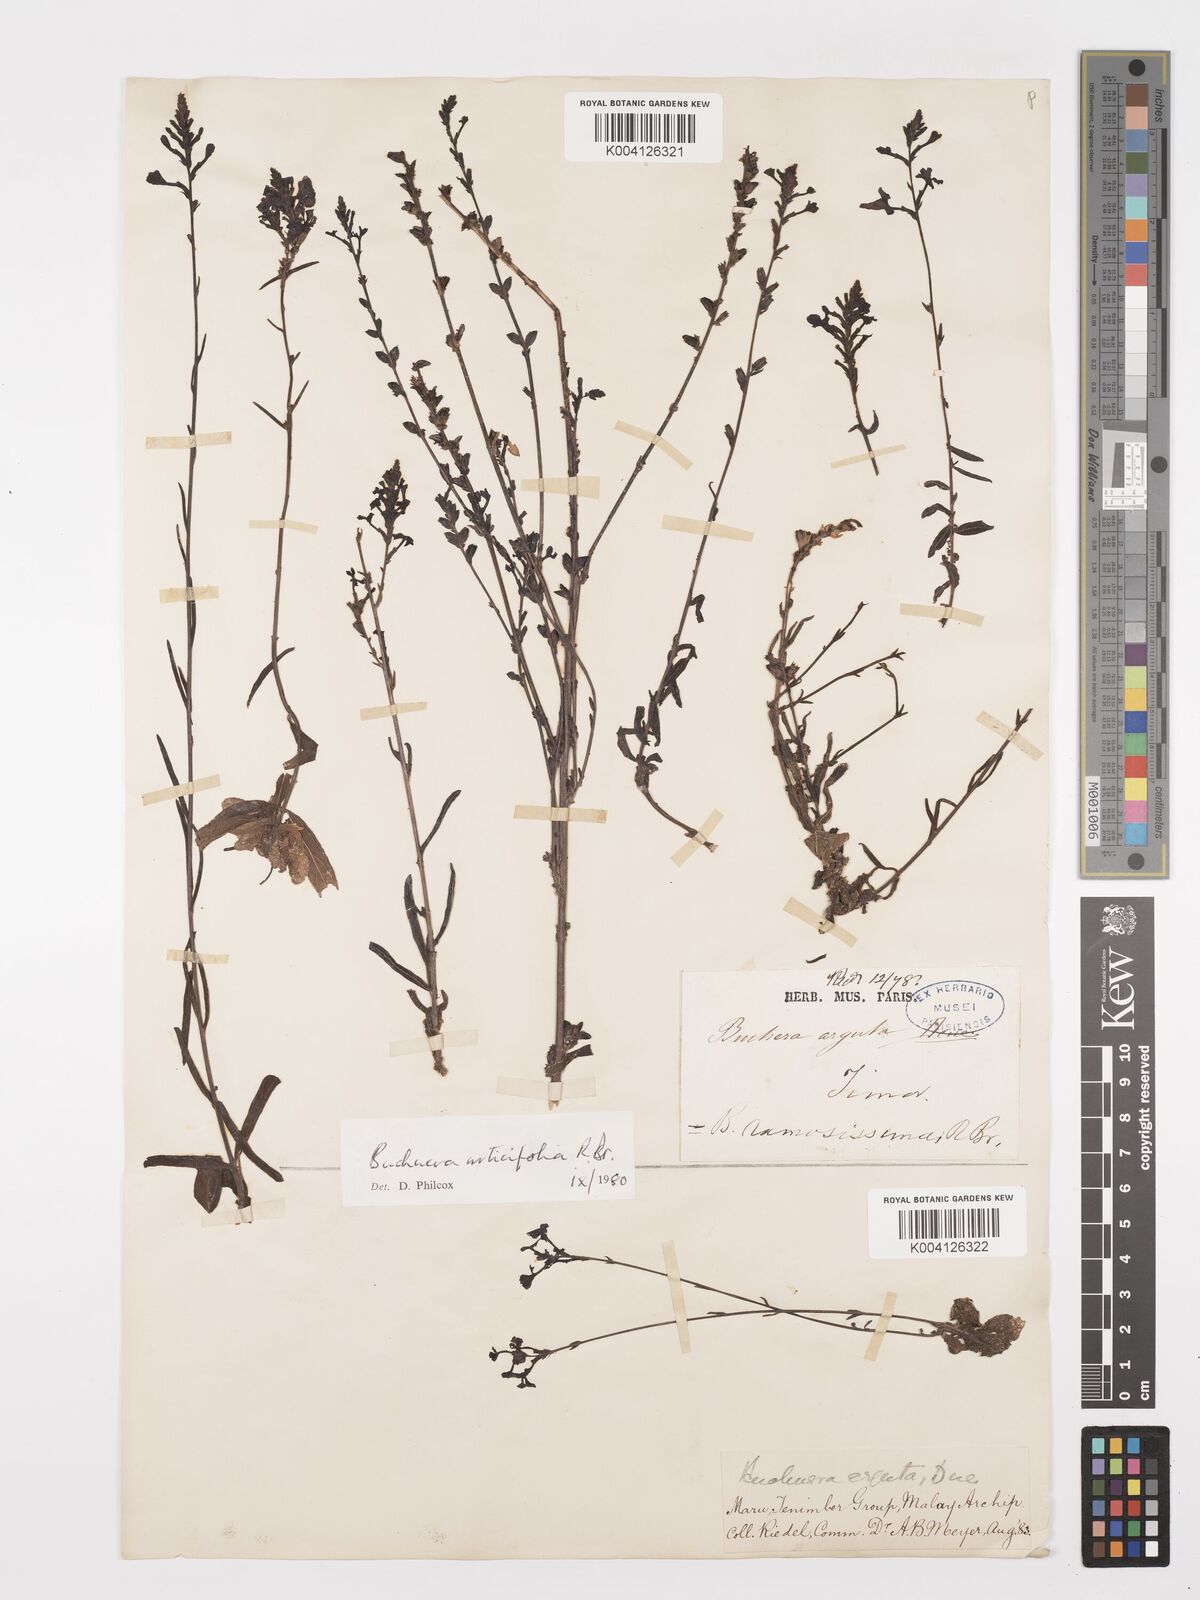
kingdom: Plantae
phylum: Tracheophyta
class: Magnoliopsida
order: Lamiales
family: Orobanchaceae
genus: Buchnera
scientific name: Buchnera urticifolia
